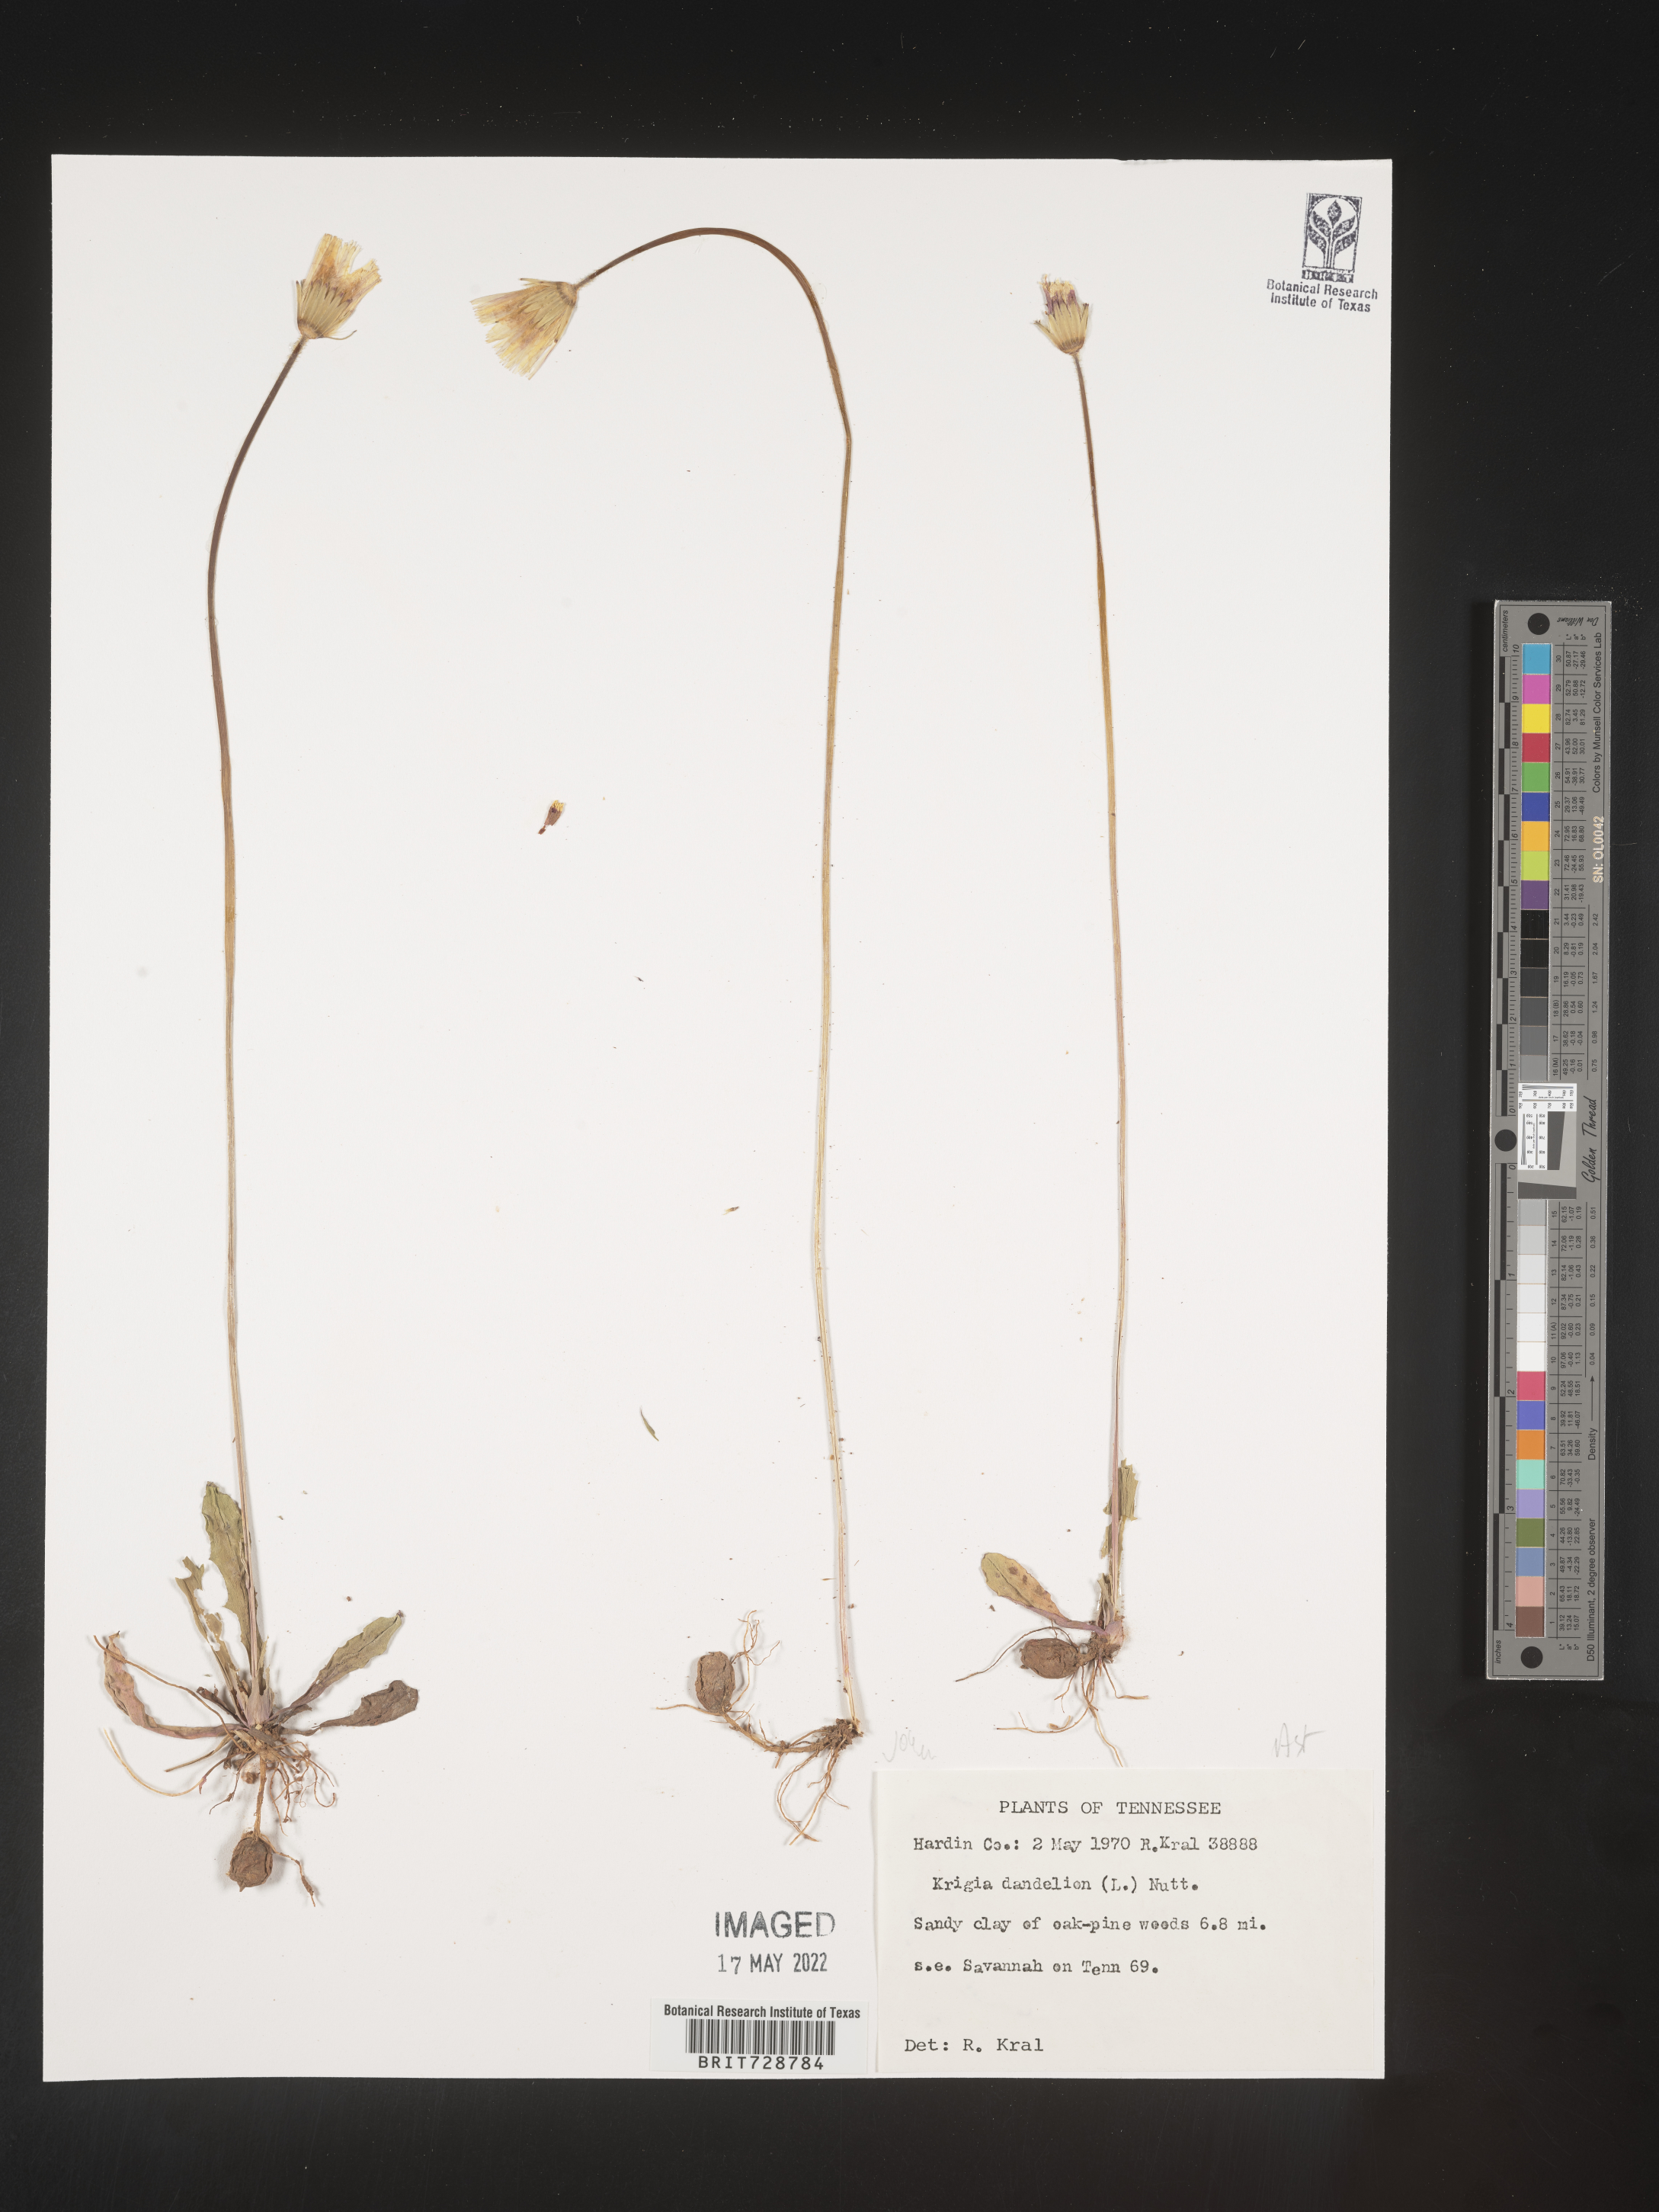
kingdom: Plantae
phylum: Tracheophyta
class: Magnoliopsida
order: Asterales
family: Asteraceae
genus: Krigia
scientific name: Krigia dandelion
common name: Colonial dwarf-dandelion
